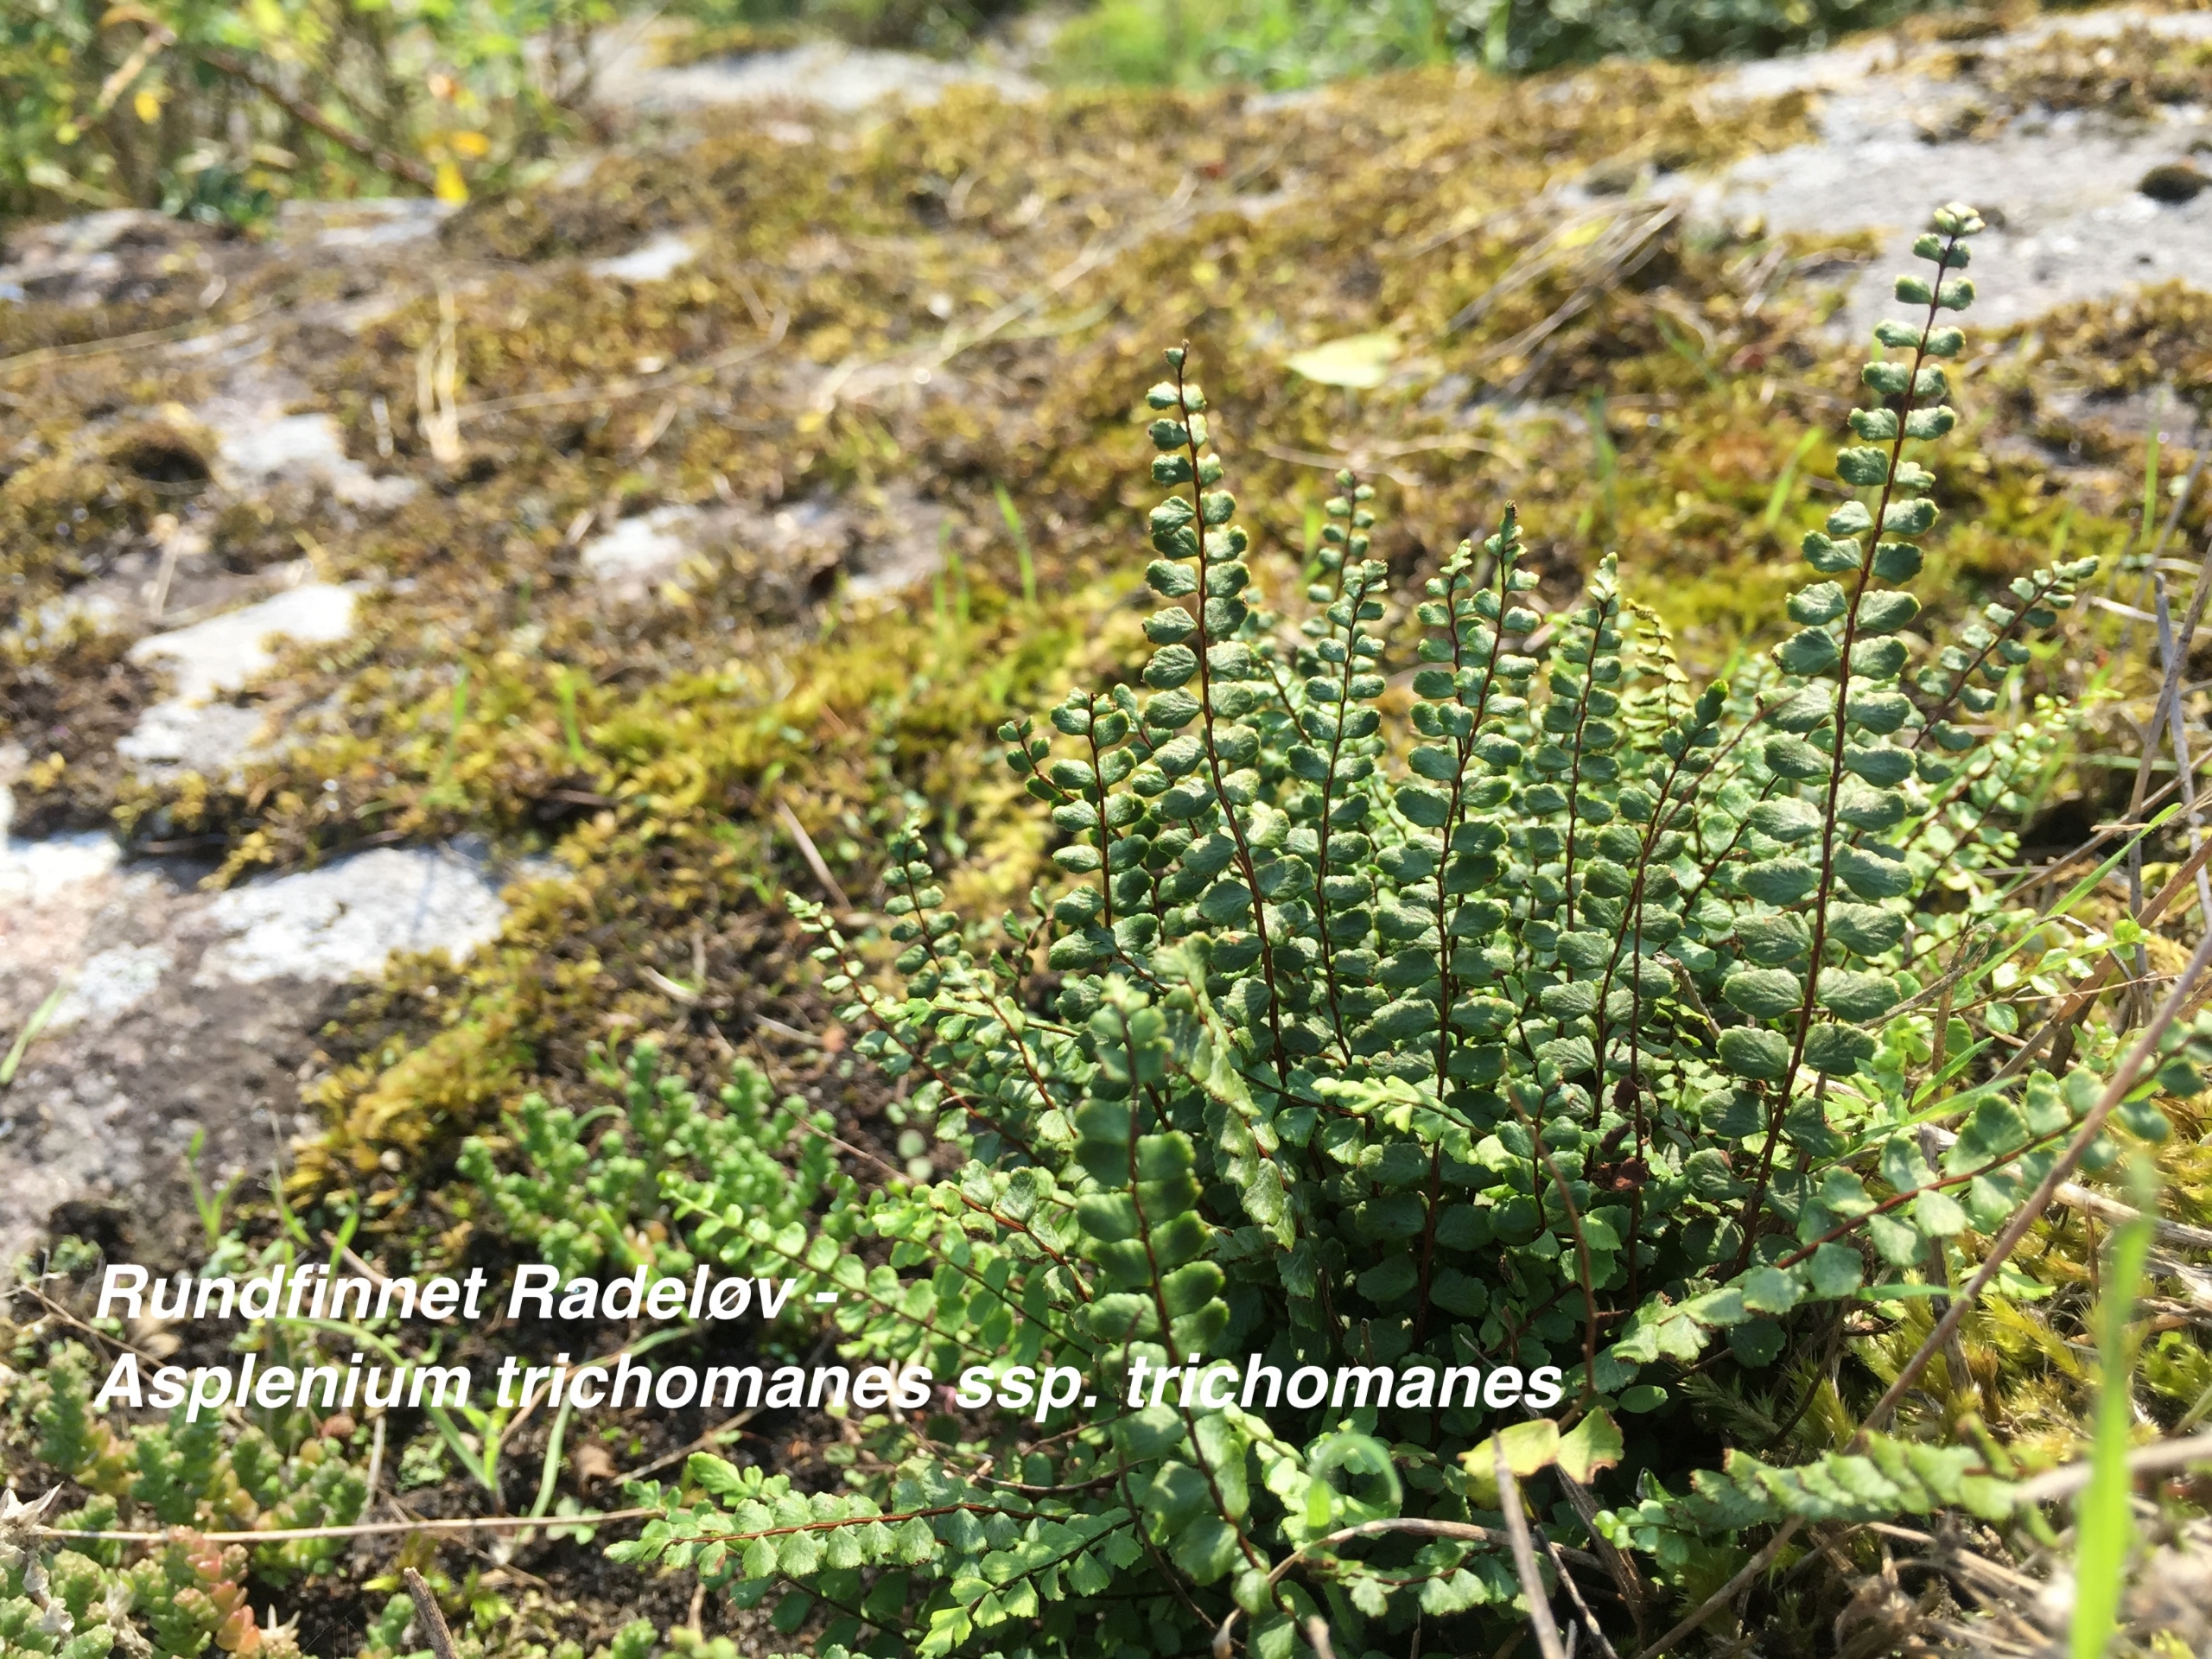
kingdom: Plantae
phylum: Tracheophyta
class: Polypodiopsida
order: Polypodiales
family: Aspleniaceae
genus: Asplenium
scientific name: Asplenium trichomanes
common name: Rundfinnet radeløv
